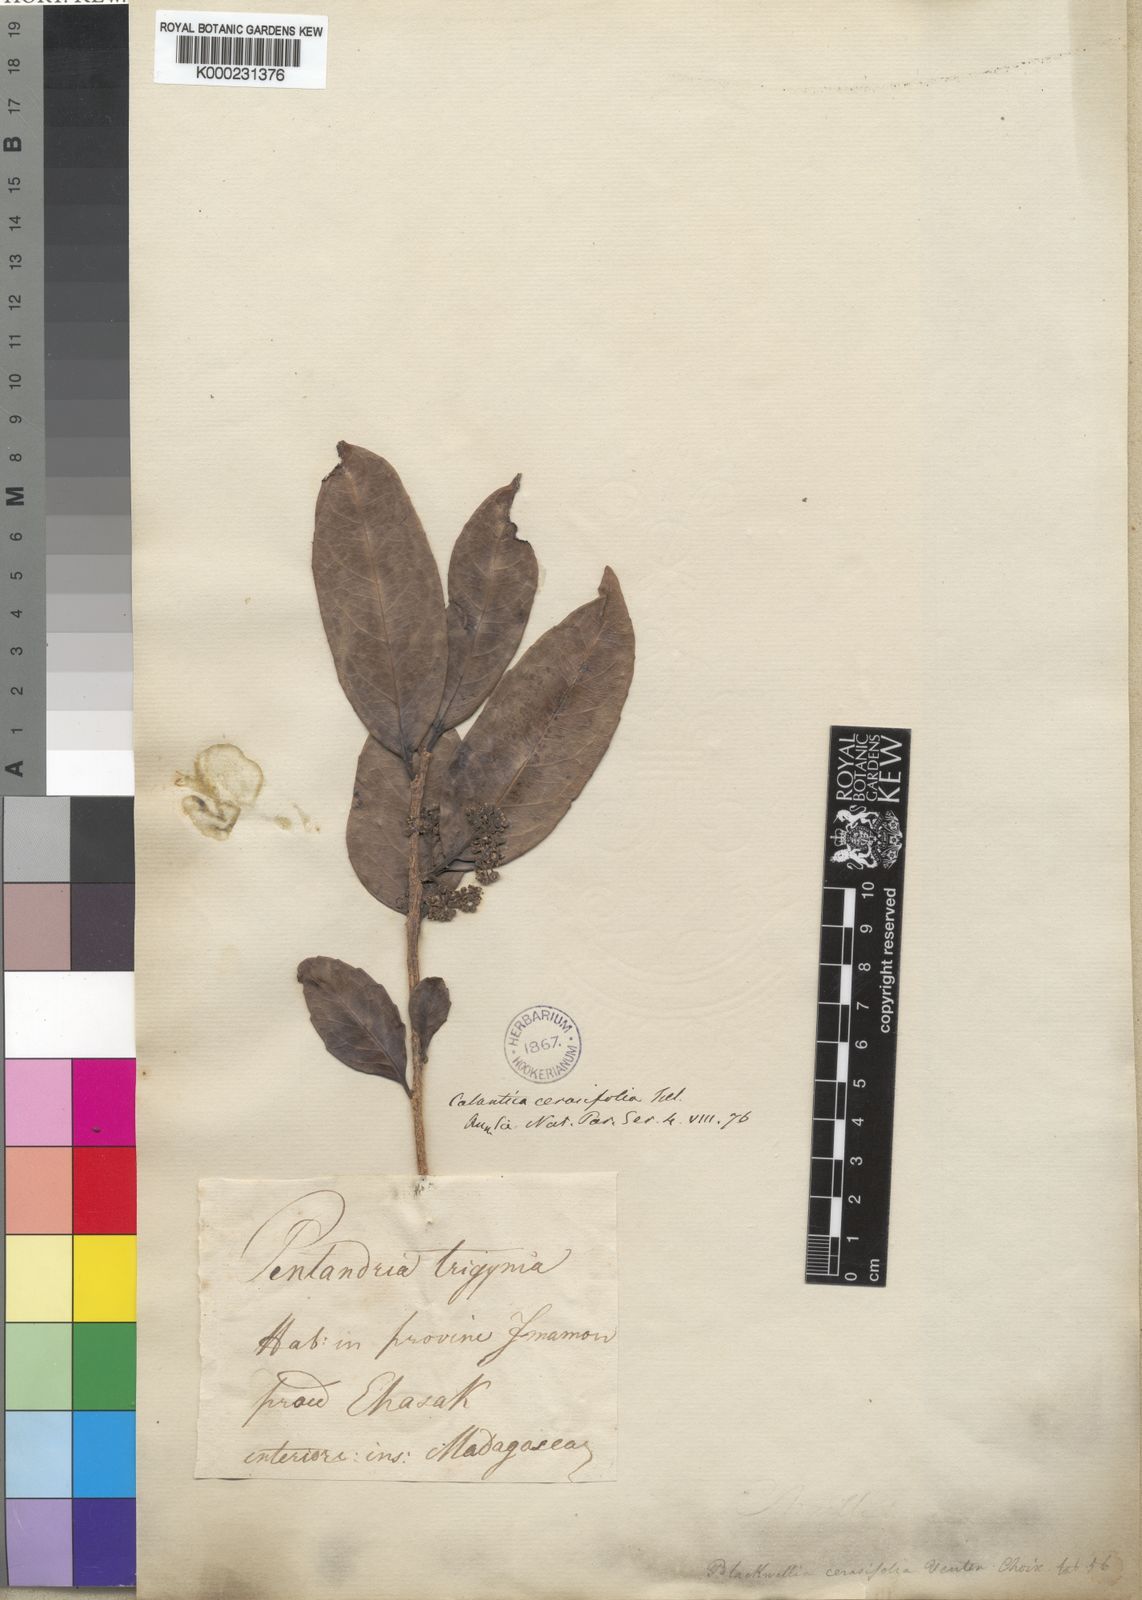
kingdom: Plantae
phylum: Tracheophyta
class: Magnoliopsida
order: Malpighiales
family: Salicaceae
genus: Calantica
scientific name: Calantica cerasifolia
